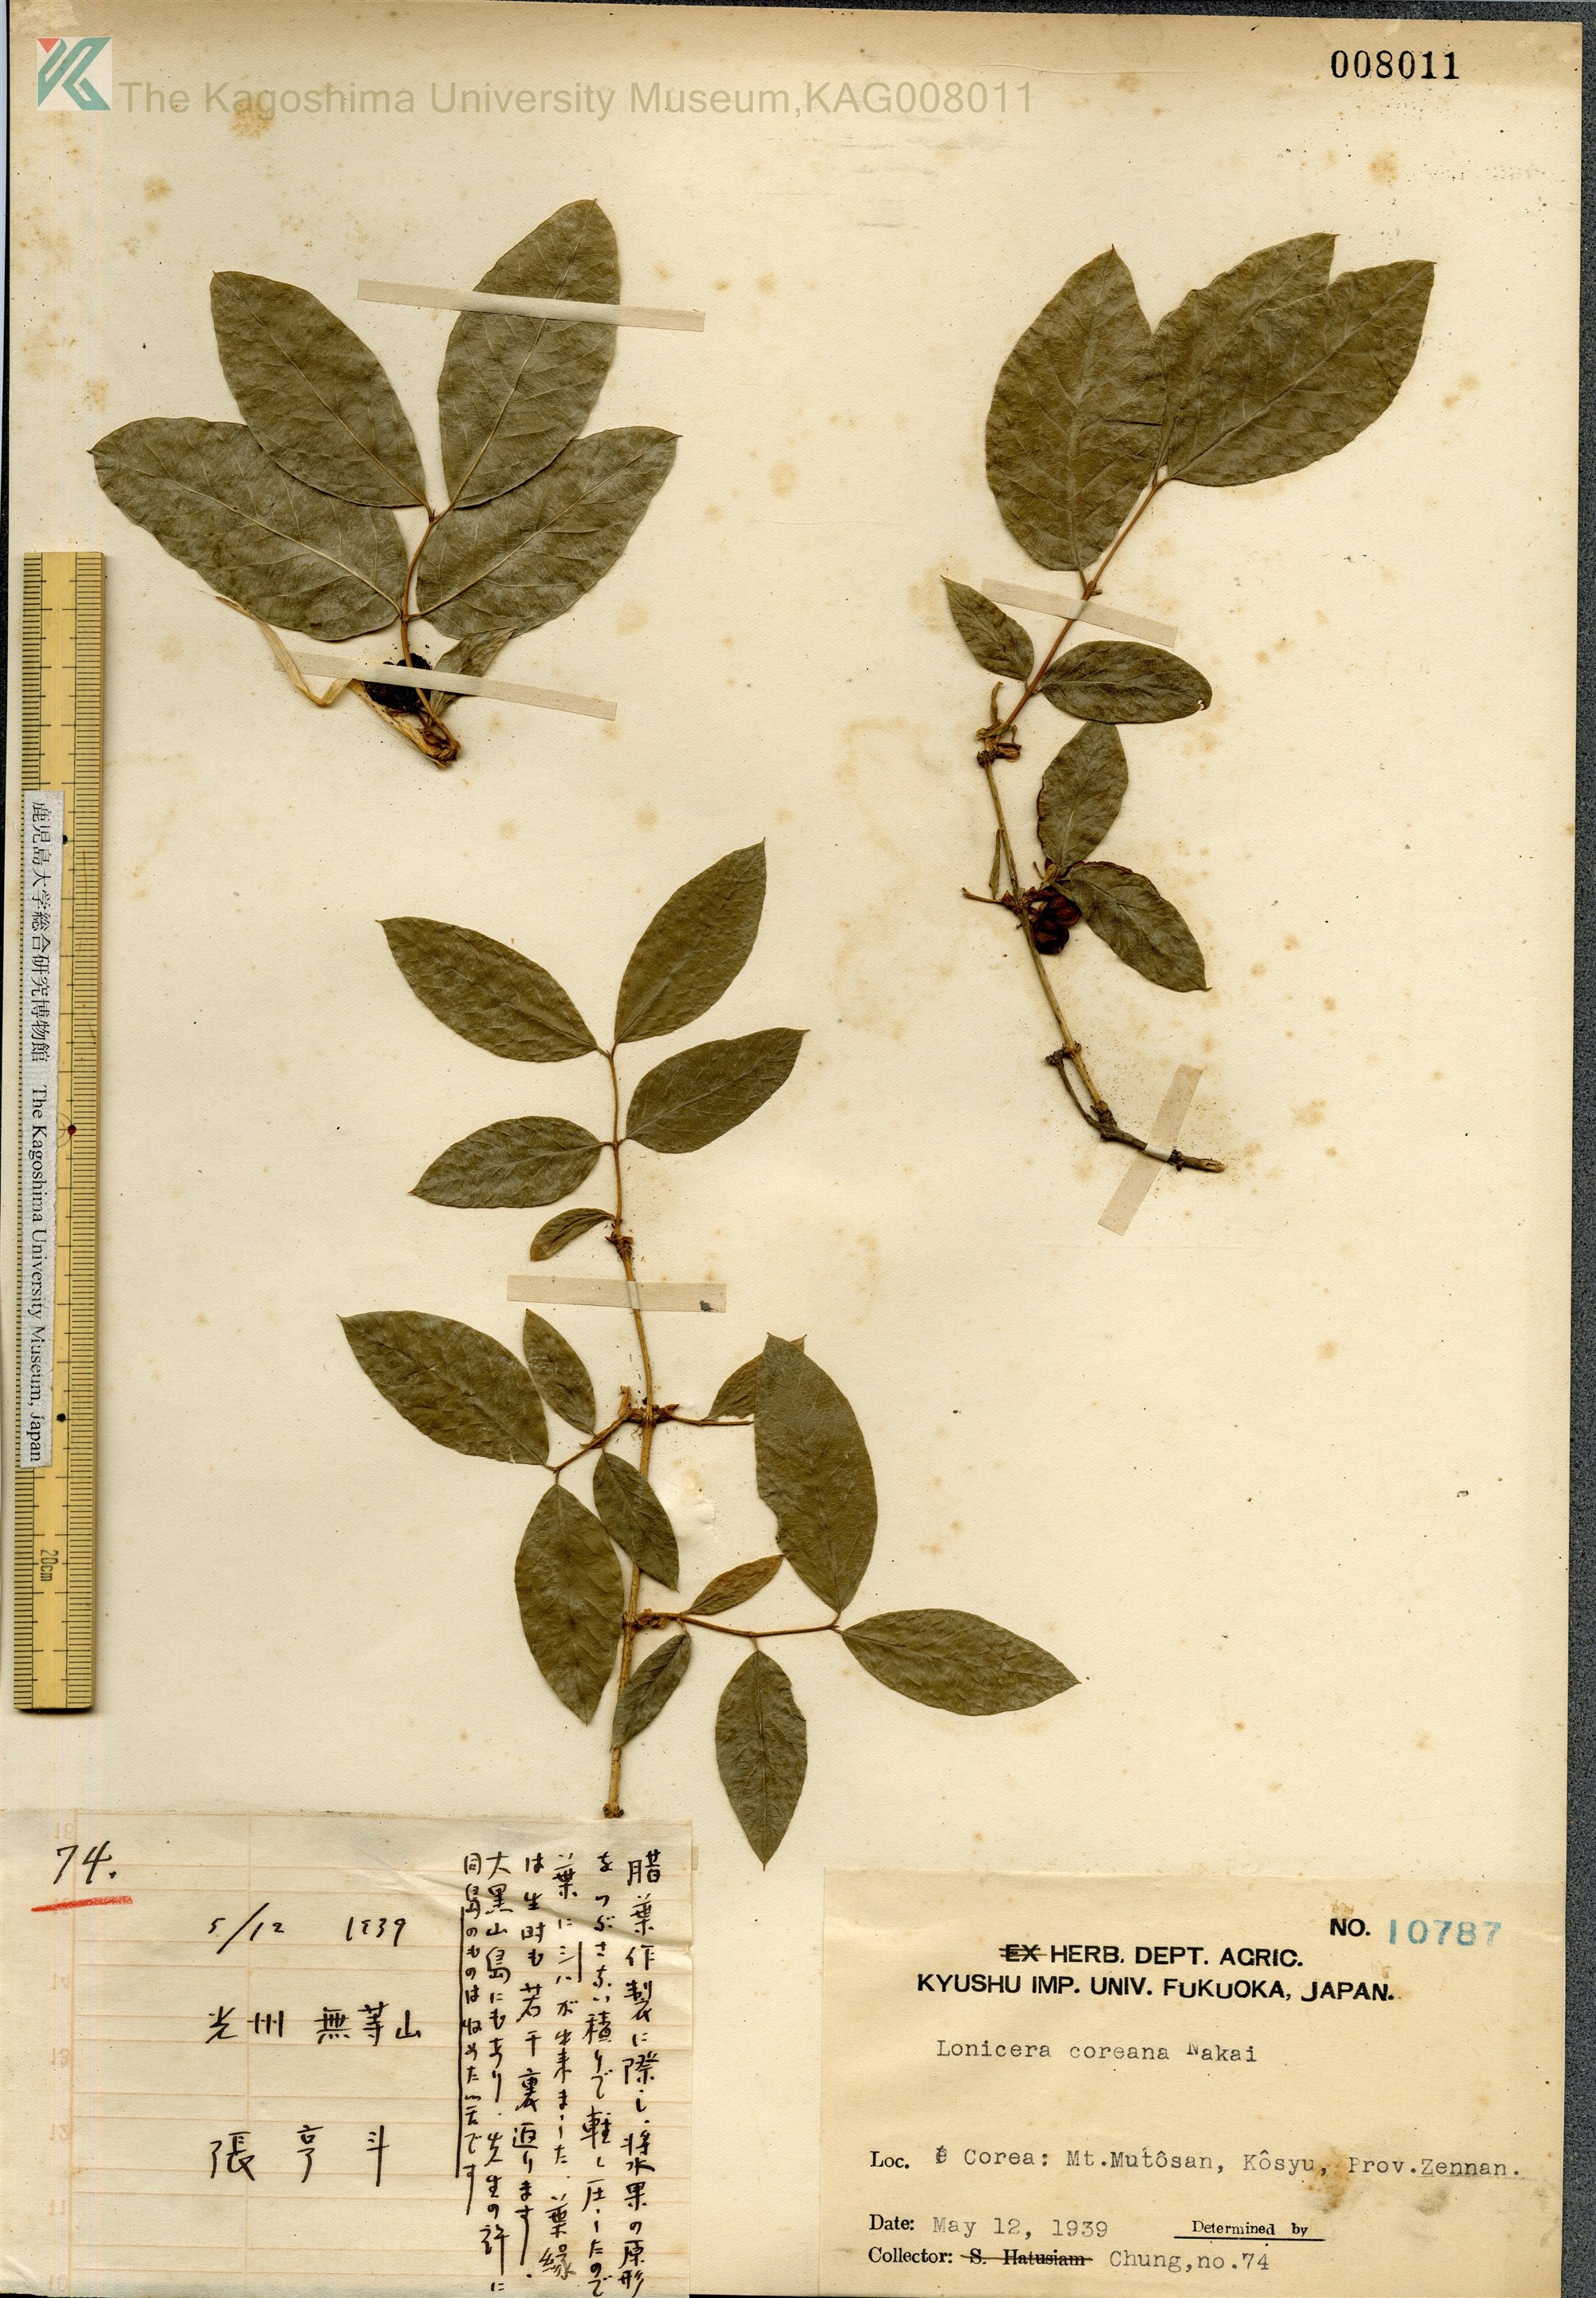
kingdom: Plantae
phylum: Tracheophyta
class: Magnoliopsida
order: Dipsacales
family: Caprifoliaceae
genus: Lonicera
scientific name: Lonicera harae
